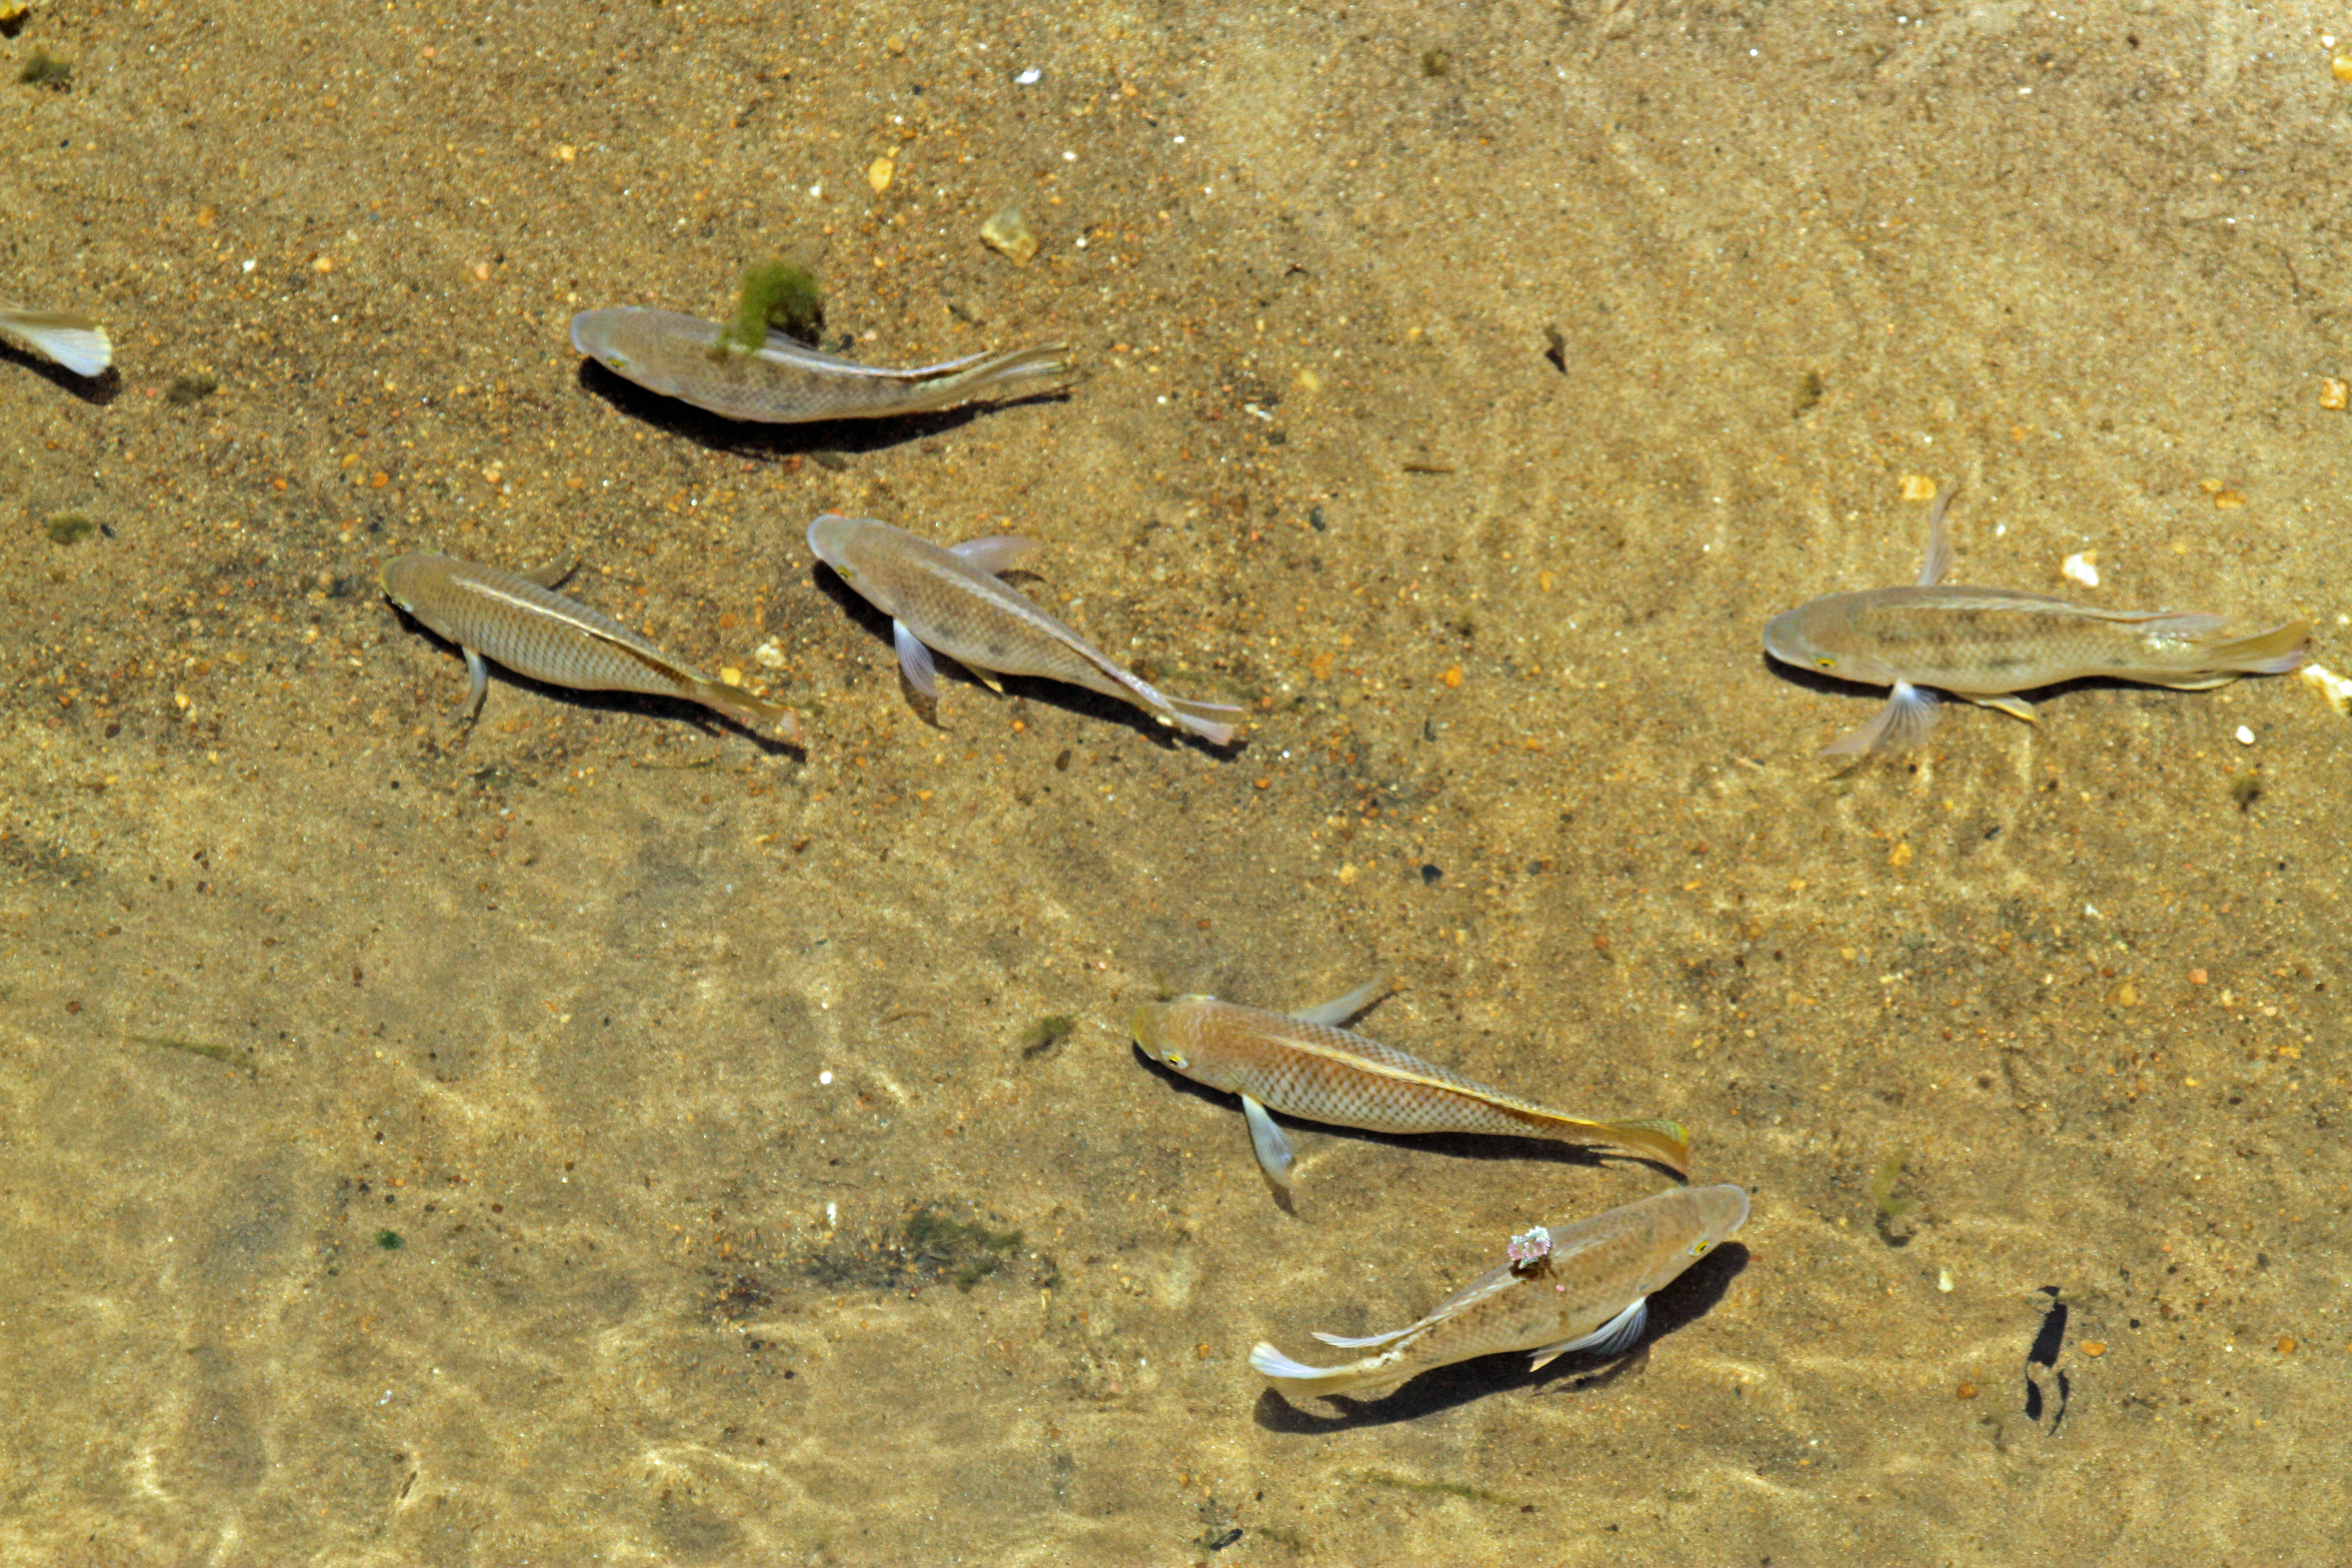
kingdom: Animalia
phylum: Chordata
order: Perciformes
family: Cichlidae
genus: Oreochromis
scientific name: Oreochromis mossambicus
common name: Mozambique tilapia
